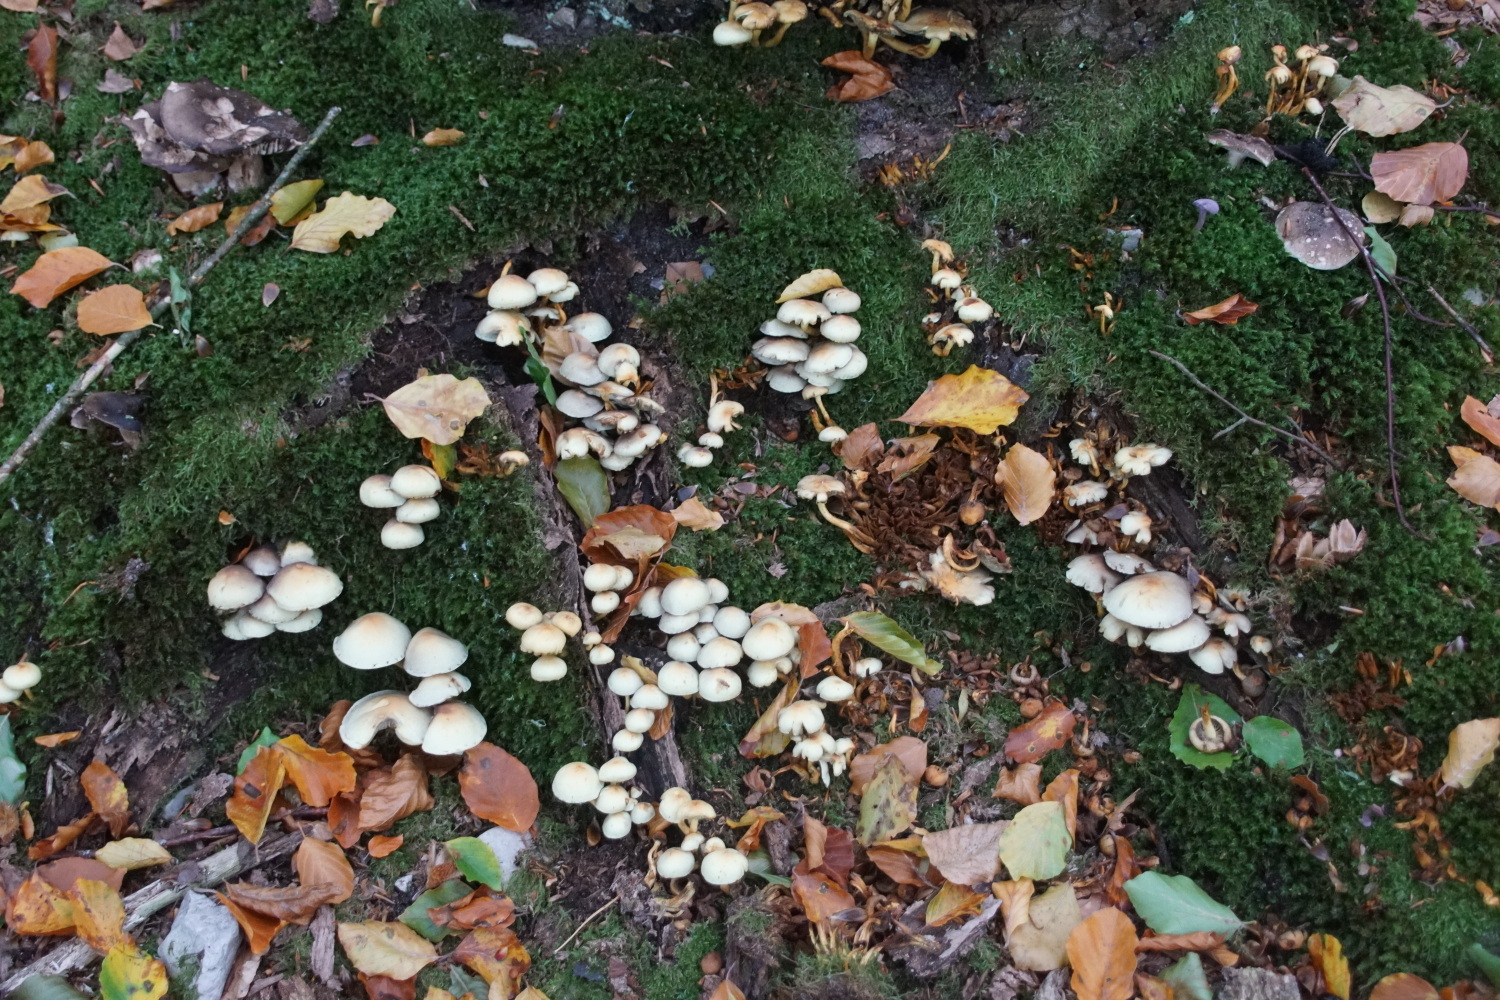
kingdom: Fungi
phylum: Basidiomycota
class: Agaricomycetes
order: Agaricales
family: Strophariaceae
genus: Hypholoma
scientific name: Hypholoma fasciculare
